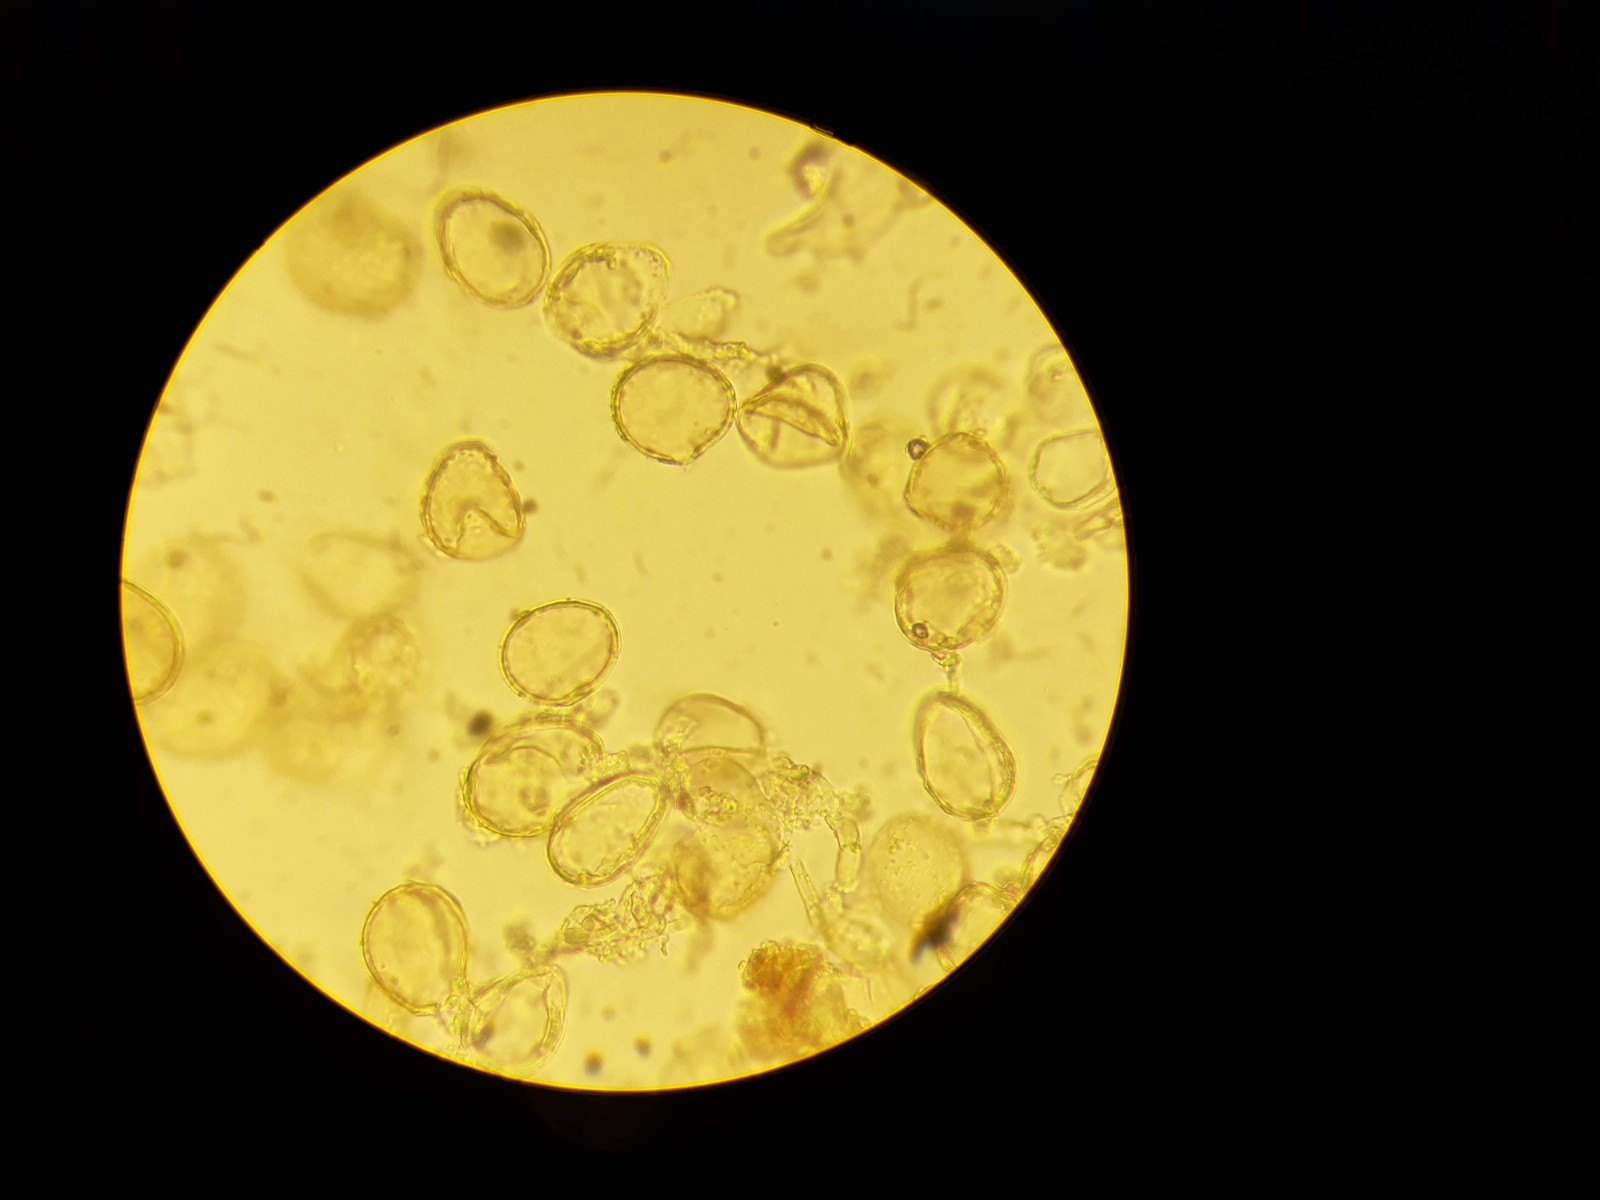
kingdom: Fungi
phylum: Basidiomycota
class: Pucciniomycetes
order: Pucciniales
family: Pucciniaceae
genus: Puccinia
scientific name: Puccinia menthae
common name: Mint rust
